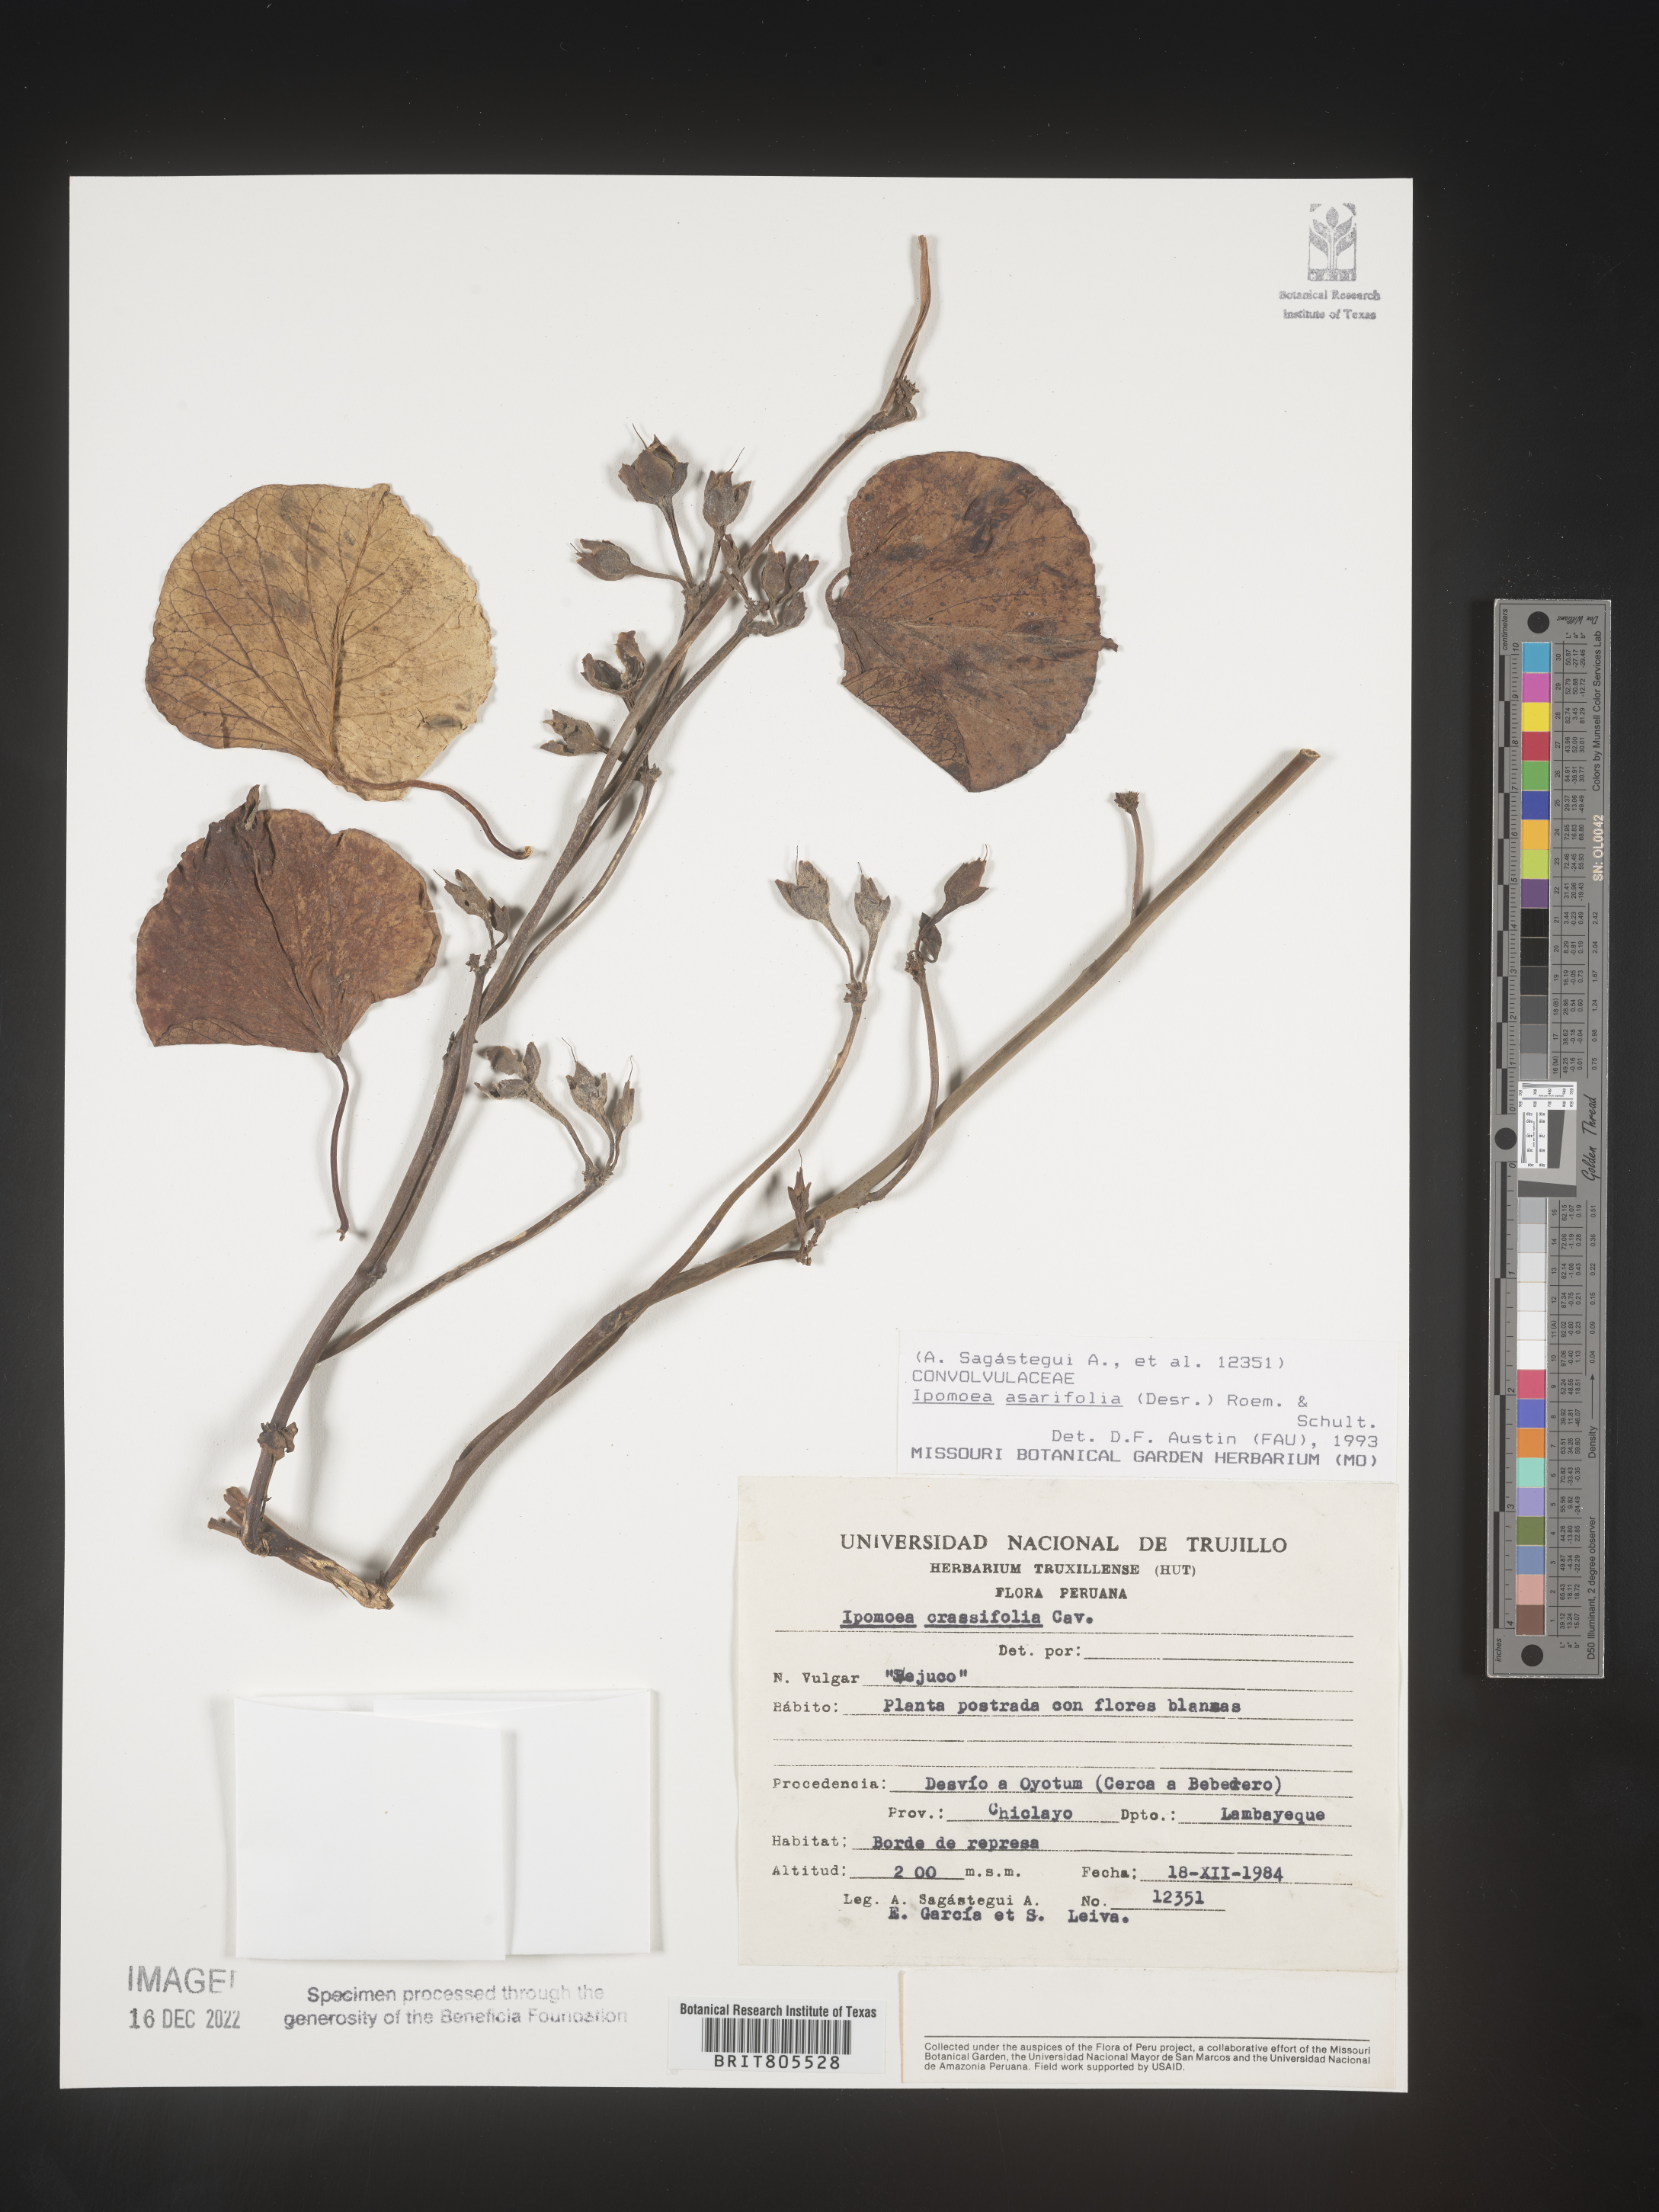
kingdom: Plantae
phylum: Tracheophyta
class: Magnoliopsida
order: Solanales
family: Convolvulaceae
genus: Ipomoea
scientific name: Ipomoea
